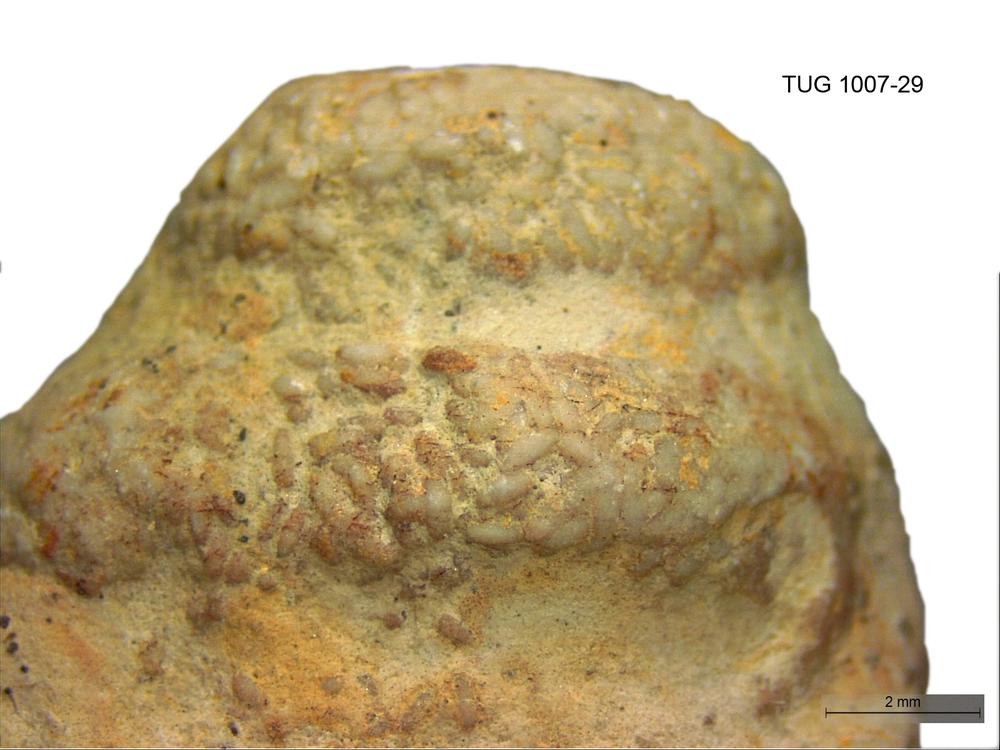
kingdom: Animalia
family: Coprulidae
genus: Coprulus
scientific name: Coprulus
